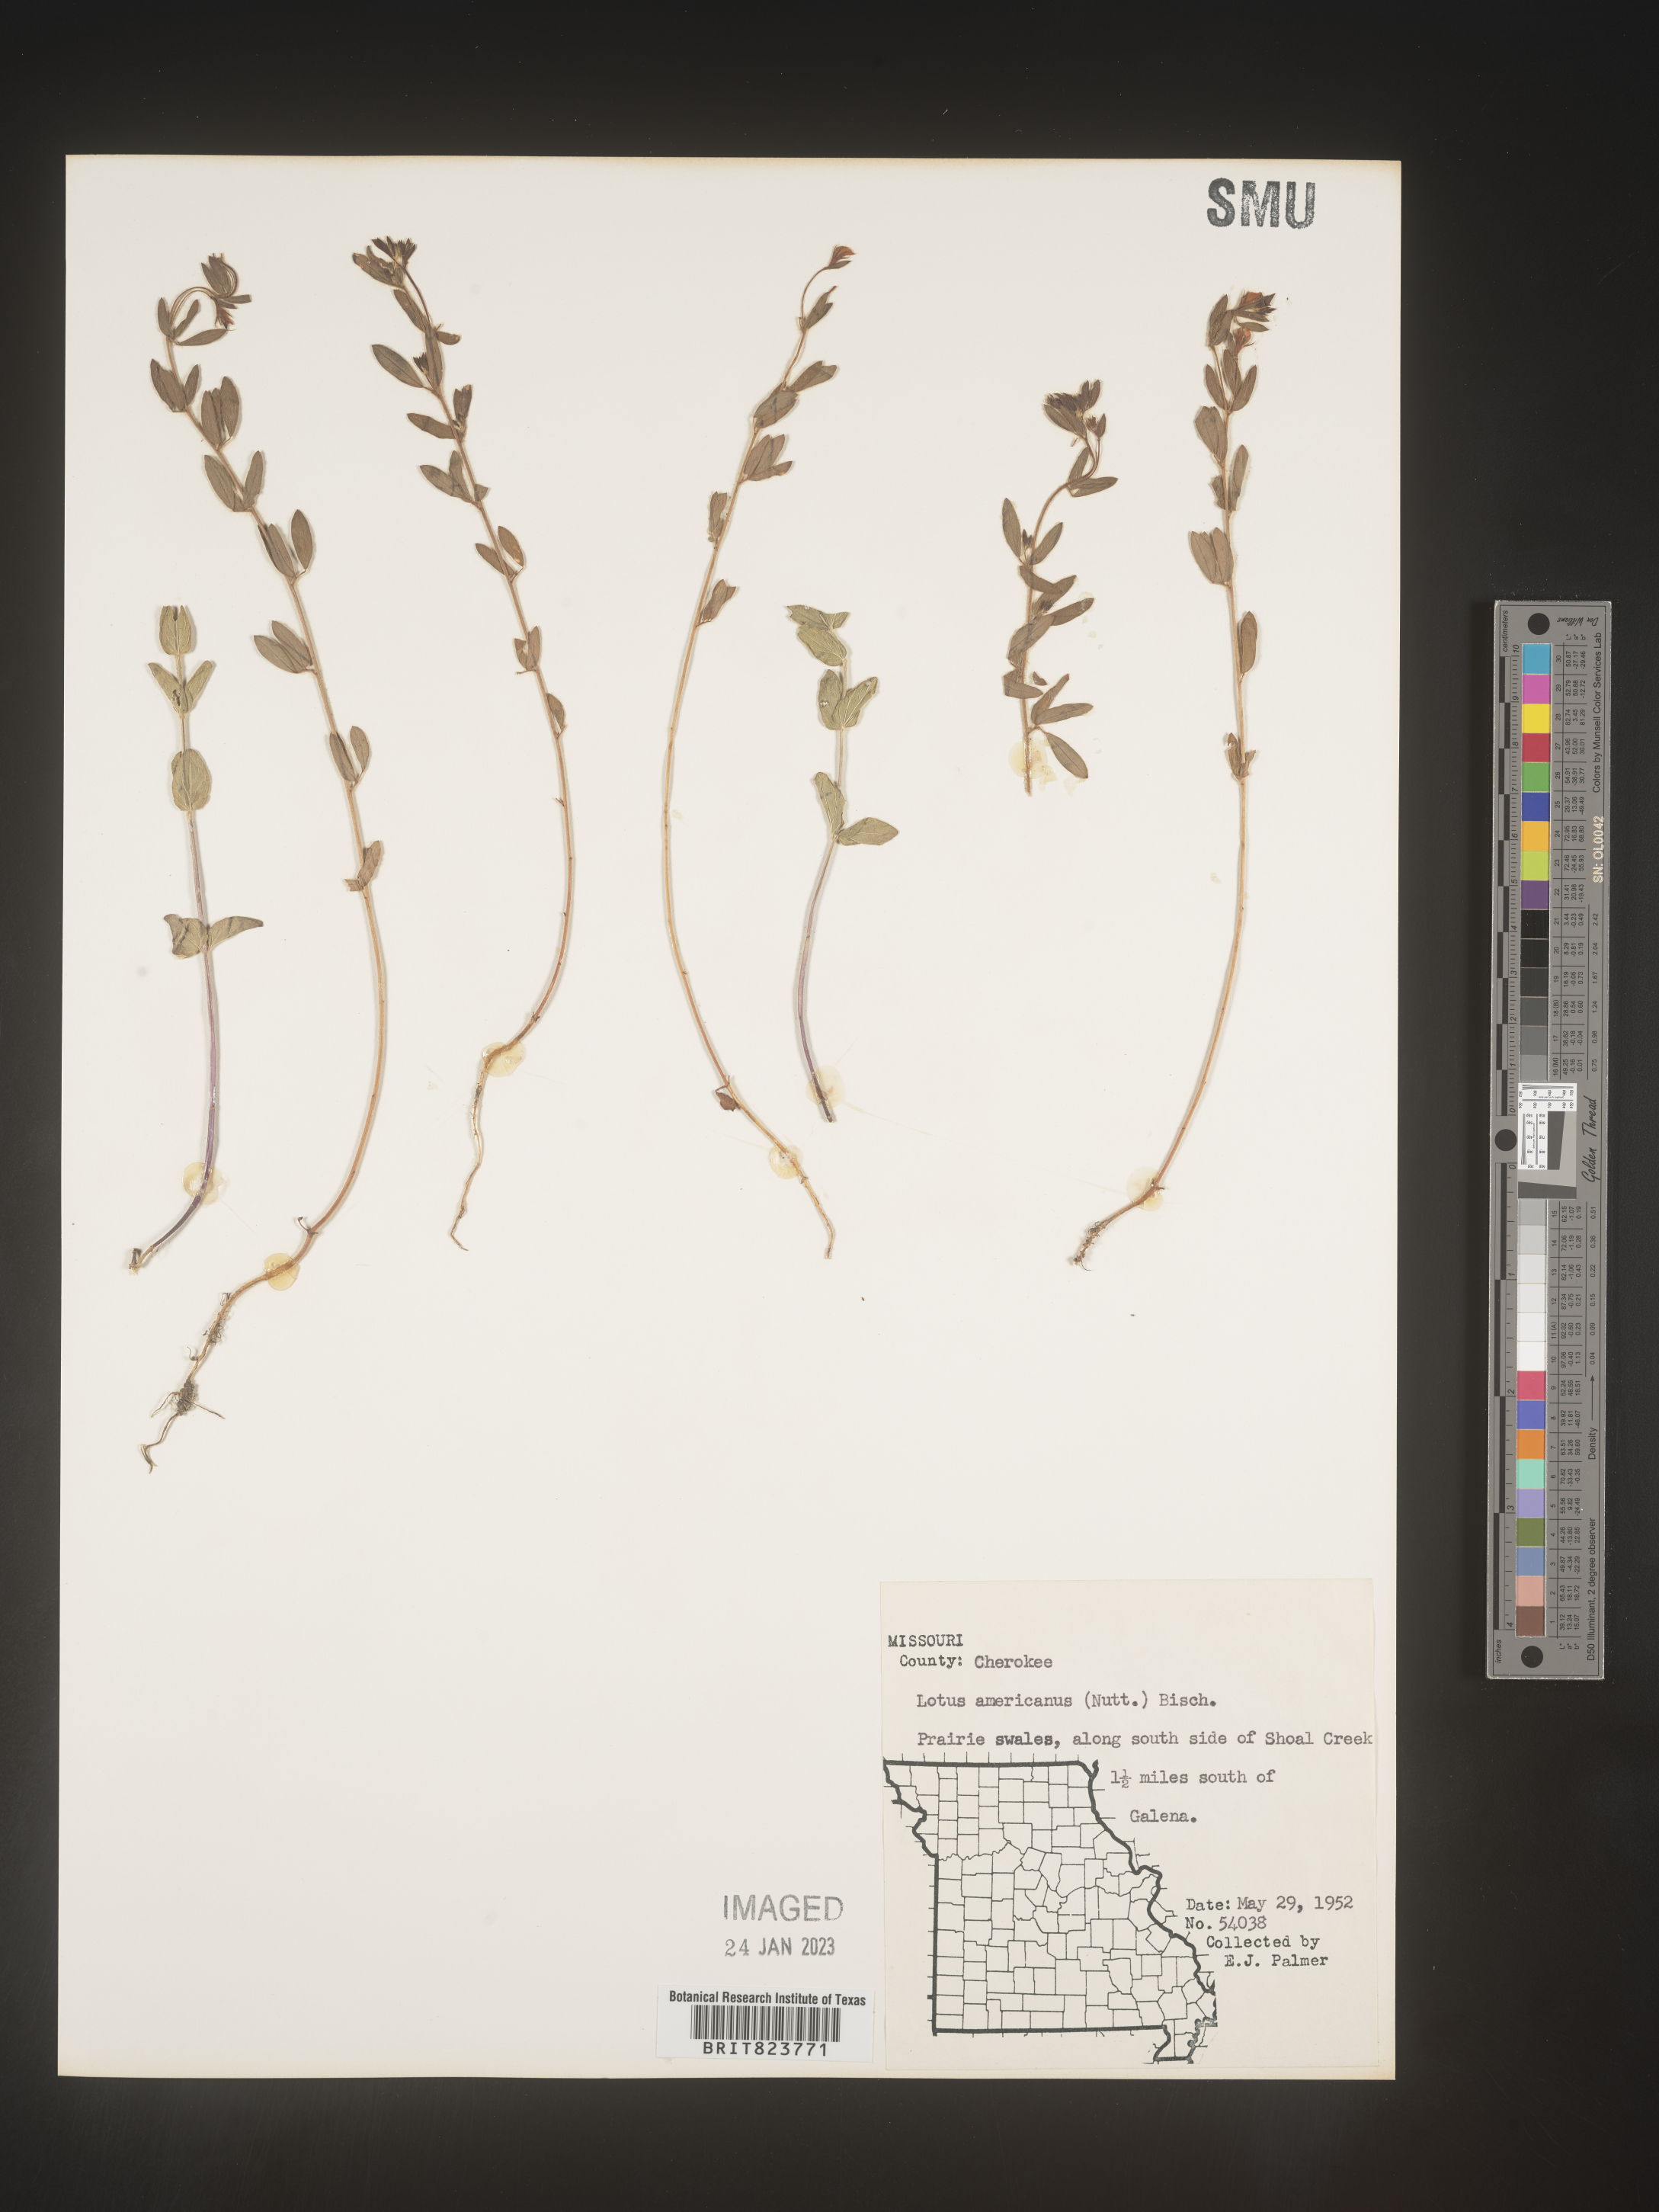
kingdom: Plantae
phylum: Tracheophyta
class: Magnoliopsida
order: Fabales
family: Fabaceae
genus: Acmispon
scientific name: Acmispon americanus
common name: American bird's-foot trefoil
